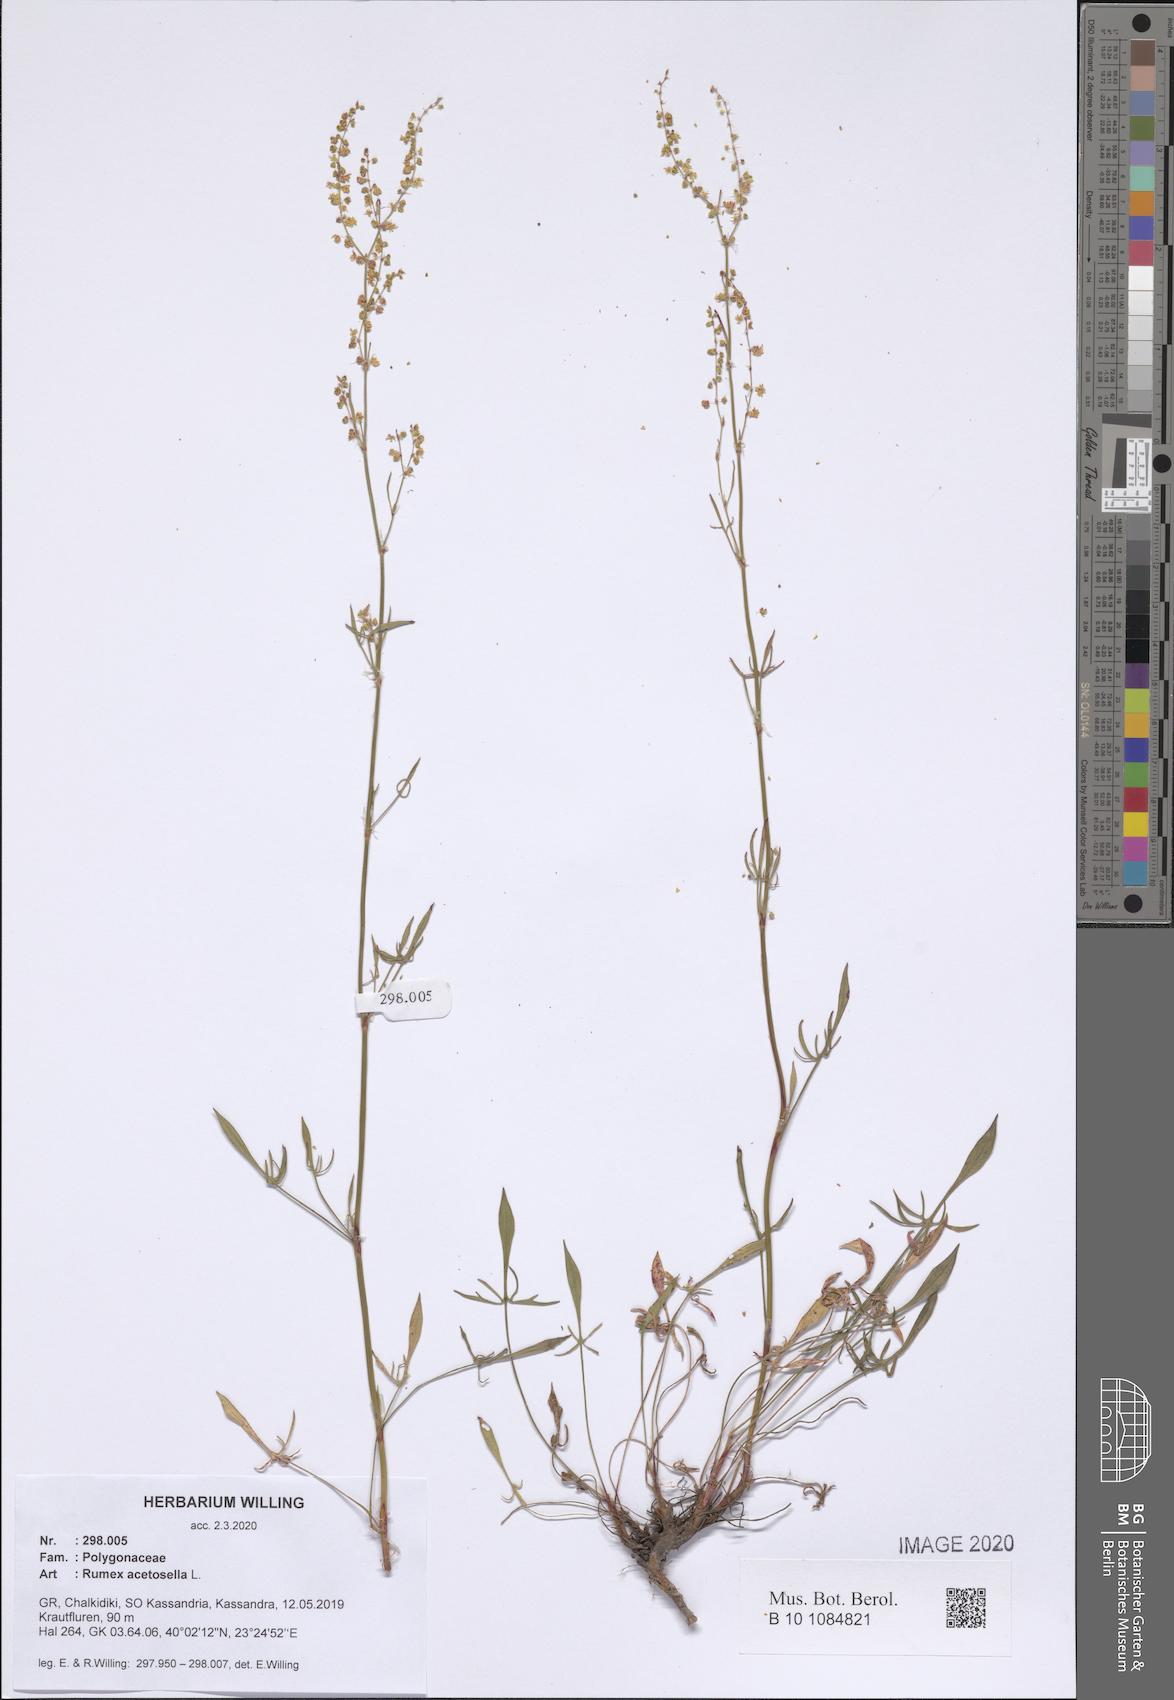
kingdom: Plantae
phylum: Tracheophyta
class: Magnoliopsida
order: Caryophyllales
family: Polygonaceae
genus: Rumex
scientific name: Rumex acetosella
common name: Common sheep sorrel
